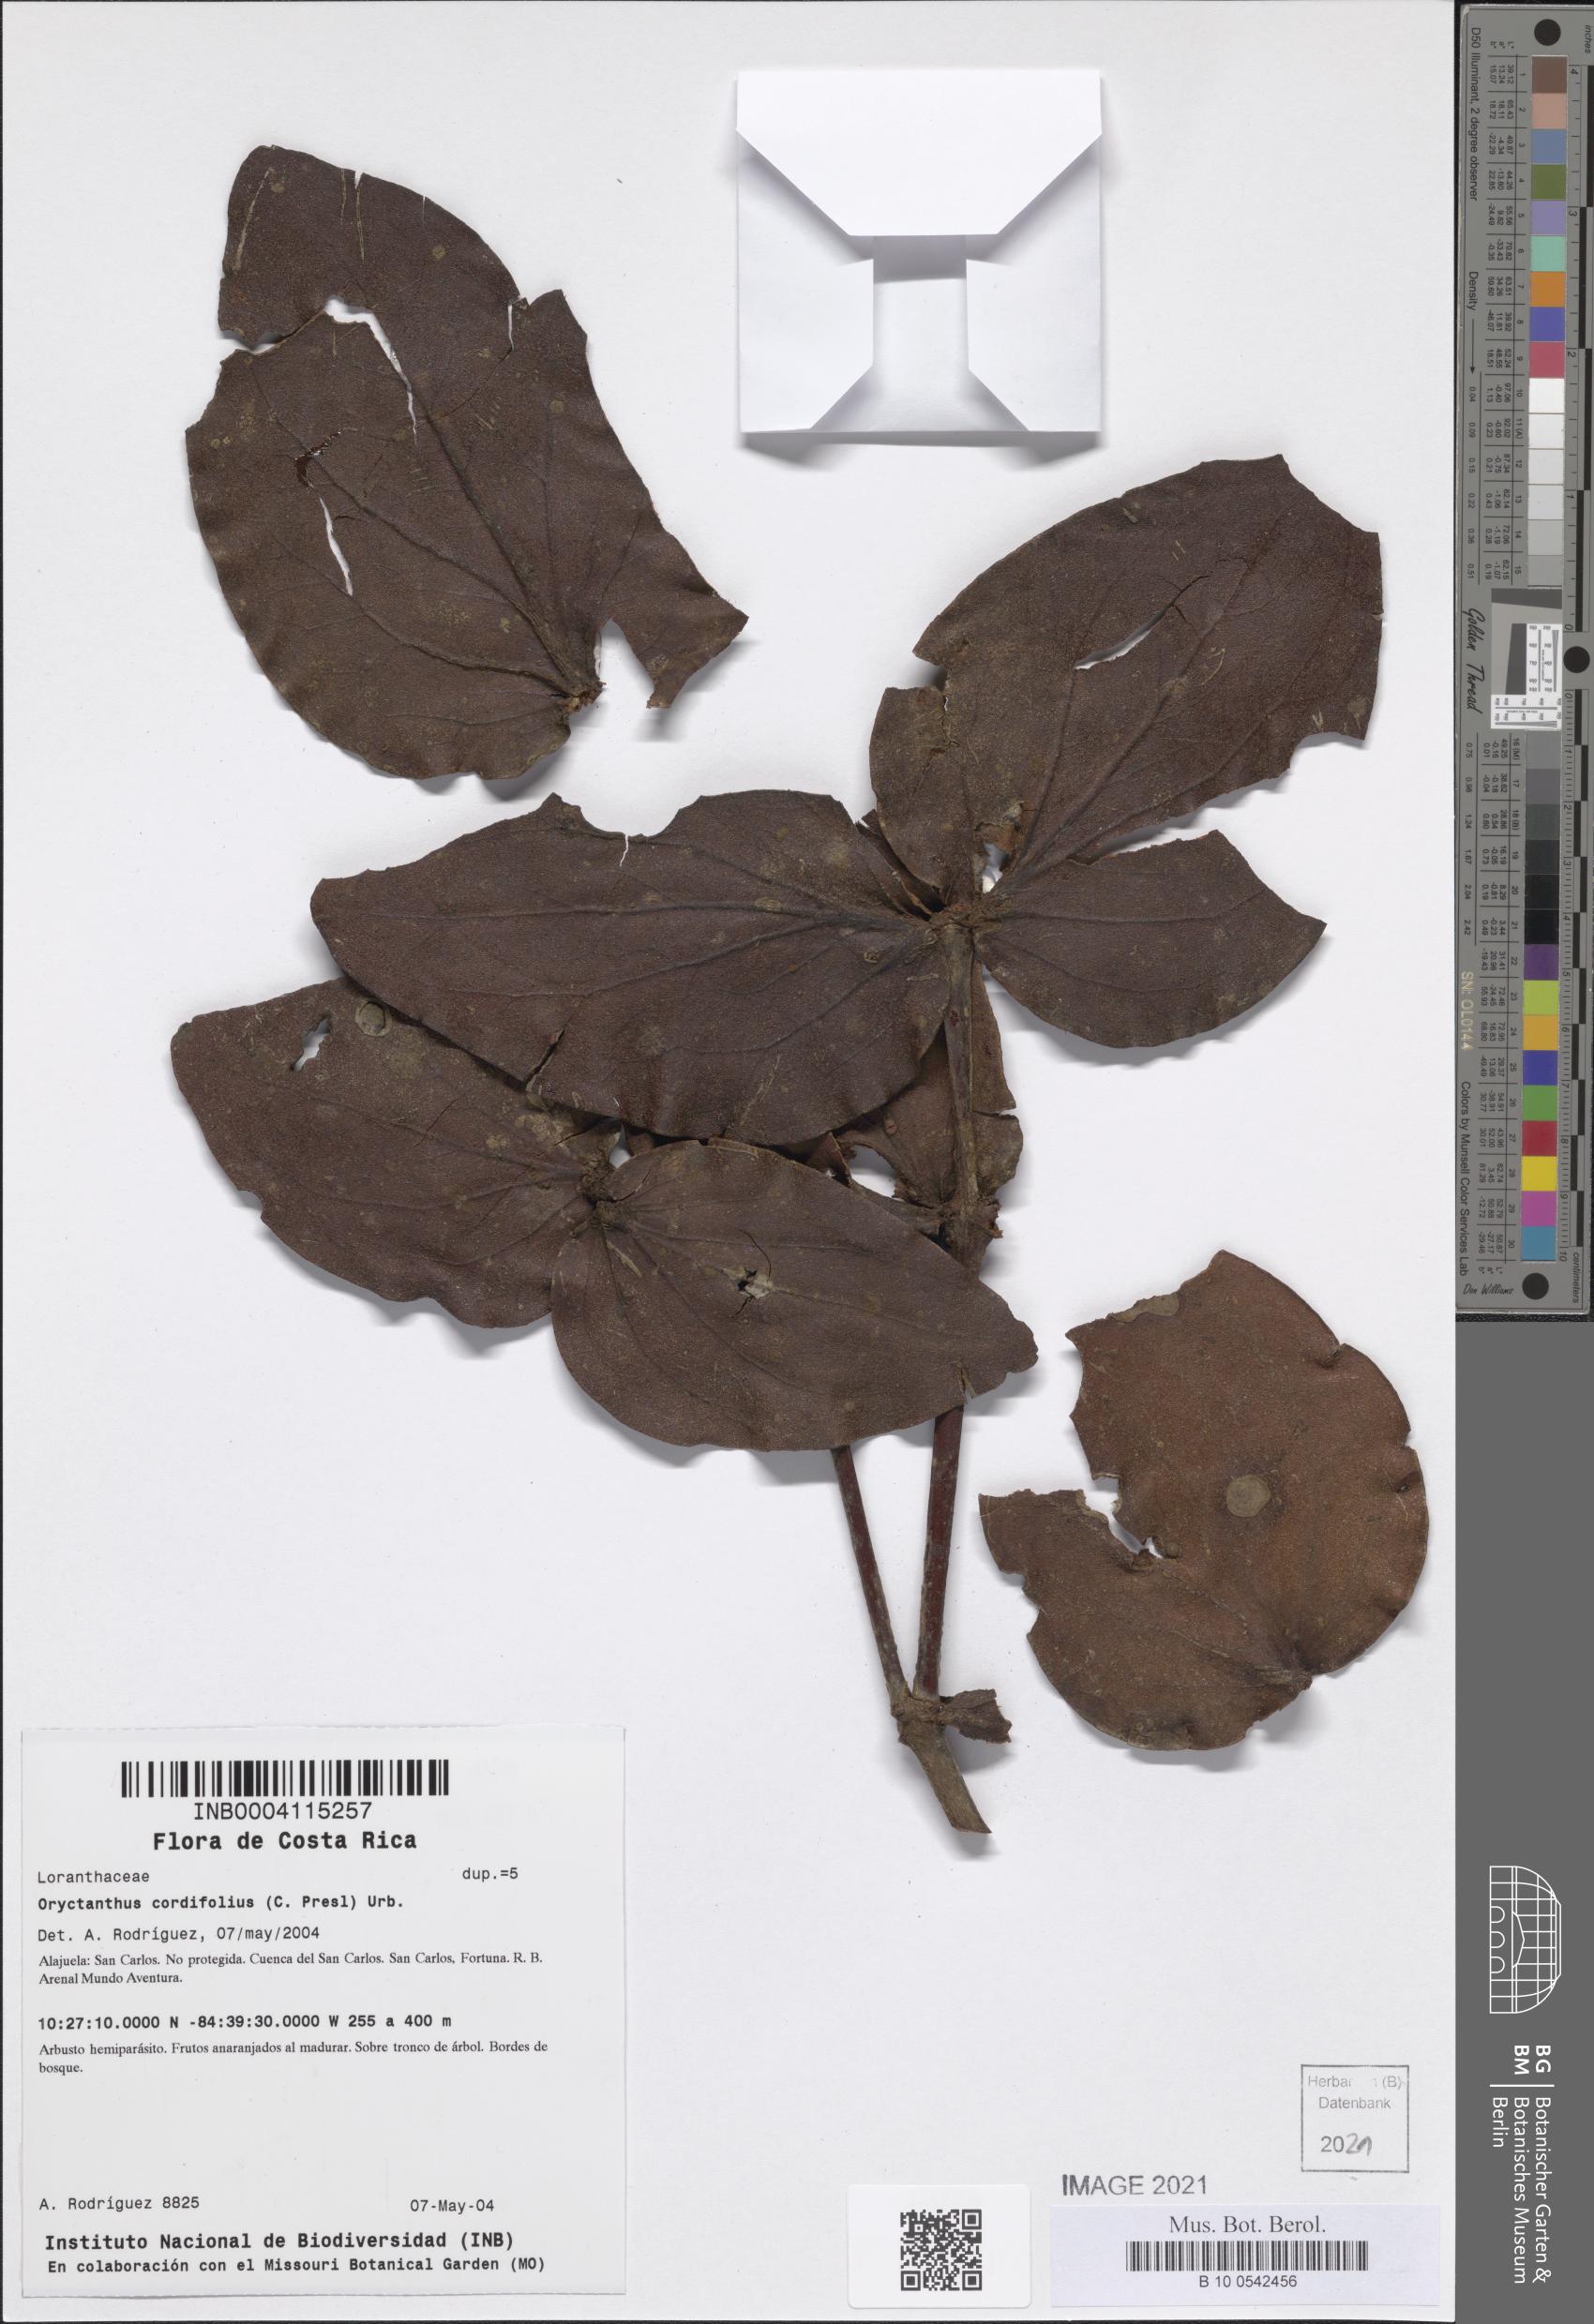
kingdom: Plantae
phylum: Tracheophyta
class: Magnoliopsida
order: Santalales
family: Loranthaceae
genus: Oryctanthus
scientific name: Oryctanthus cordifolius
